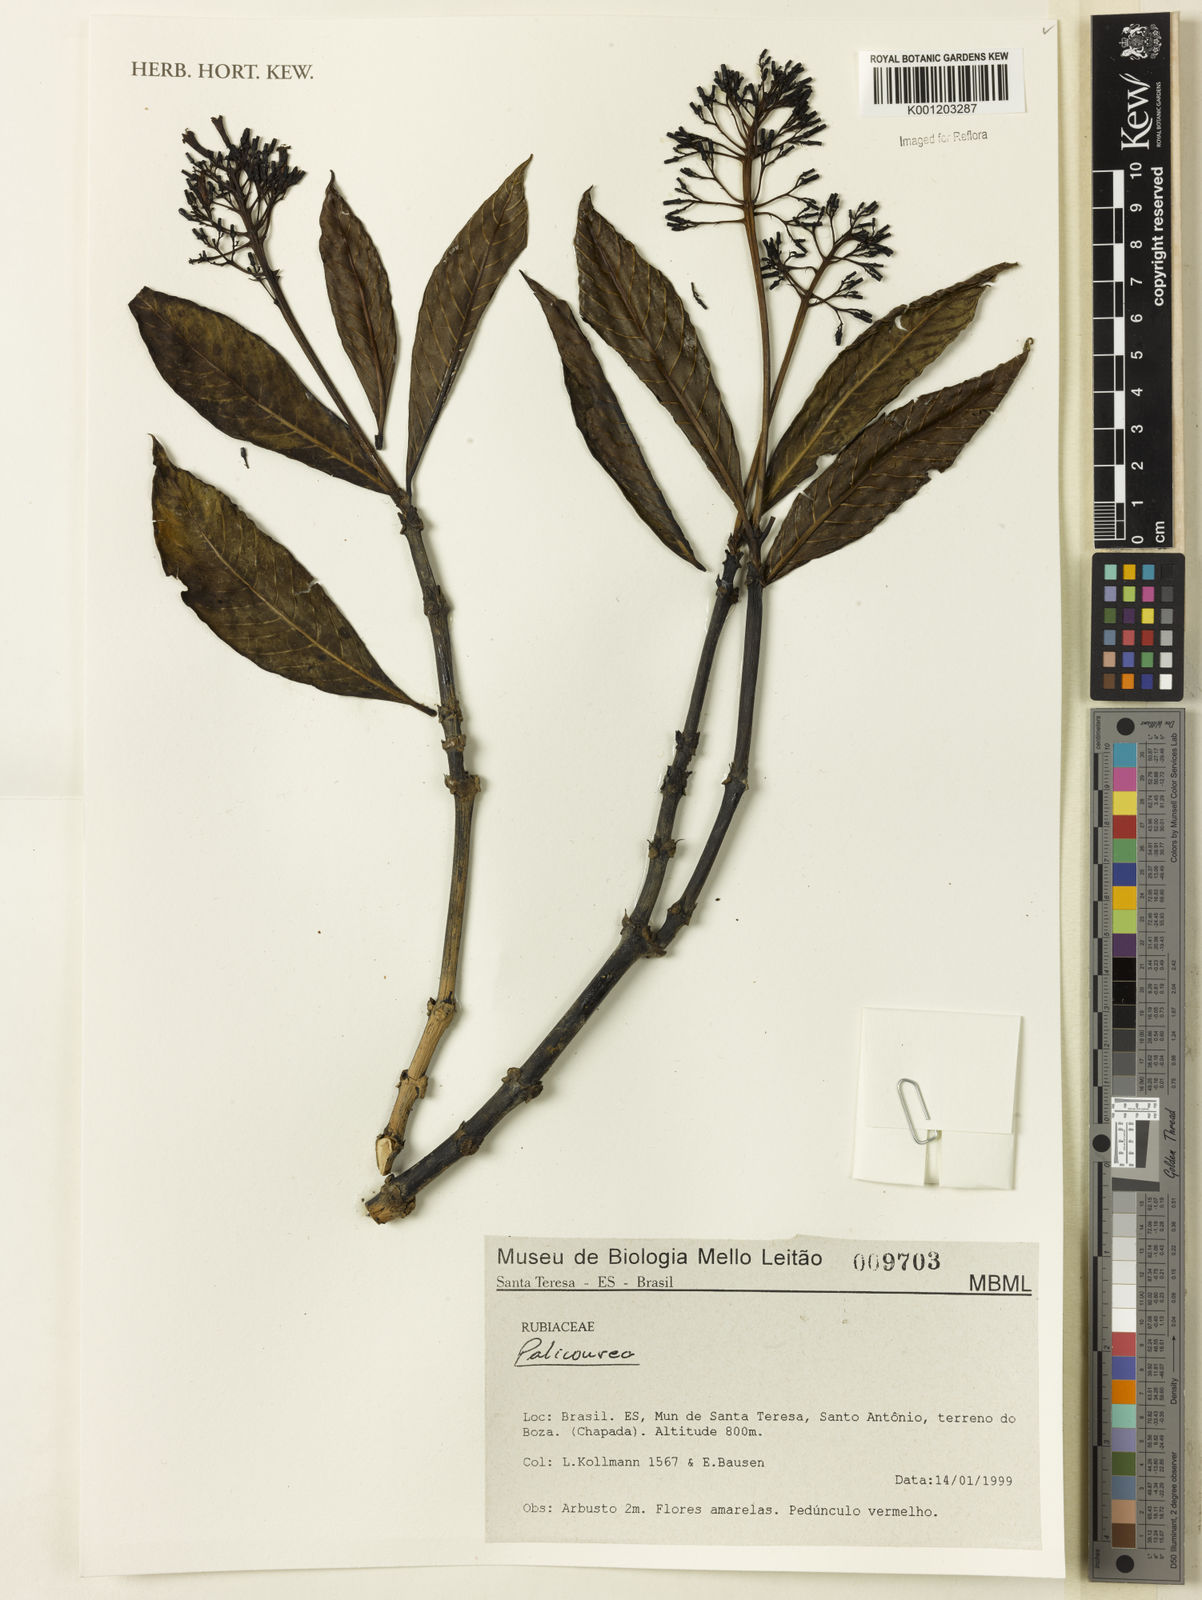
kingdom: Plantae
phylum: Tracheophyta
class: Magnoliopsida
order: Gentianales
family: Rubiaceae
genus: Palicourea
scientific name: Palicourea
